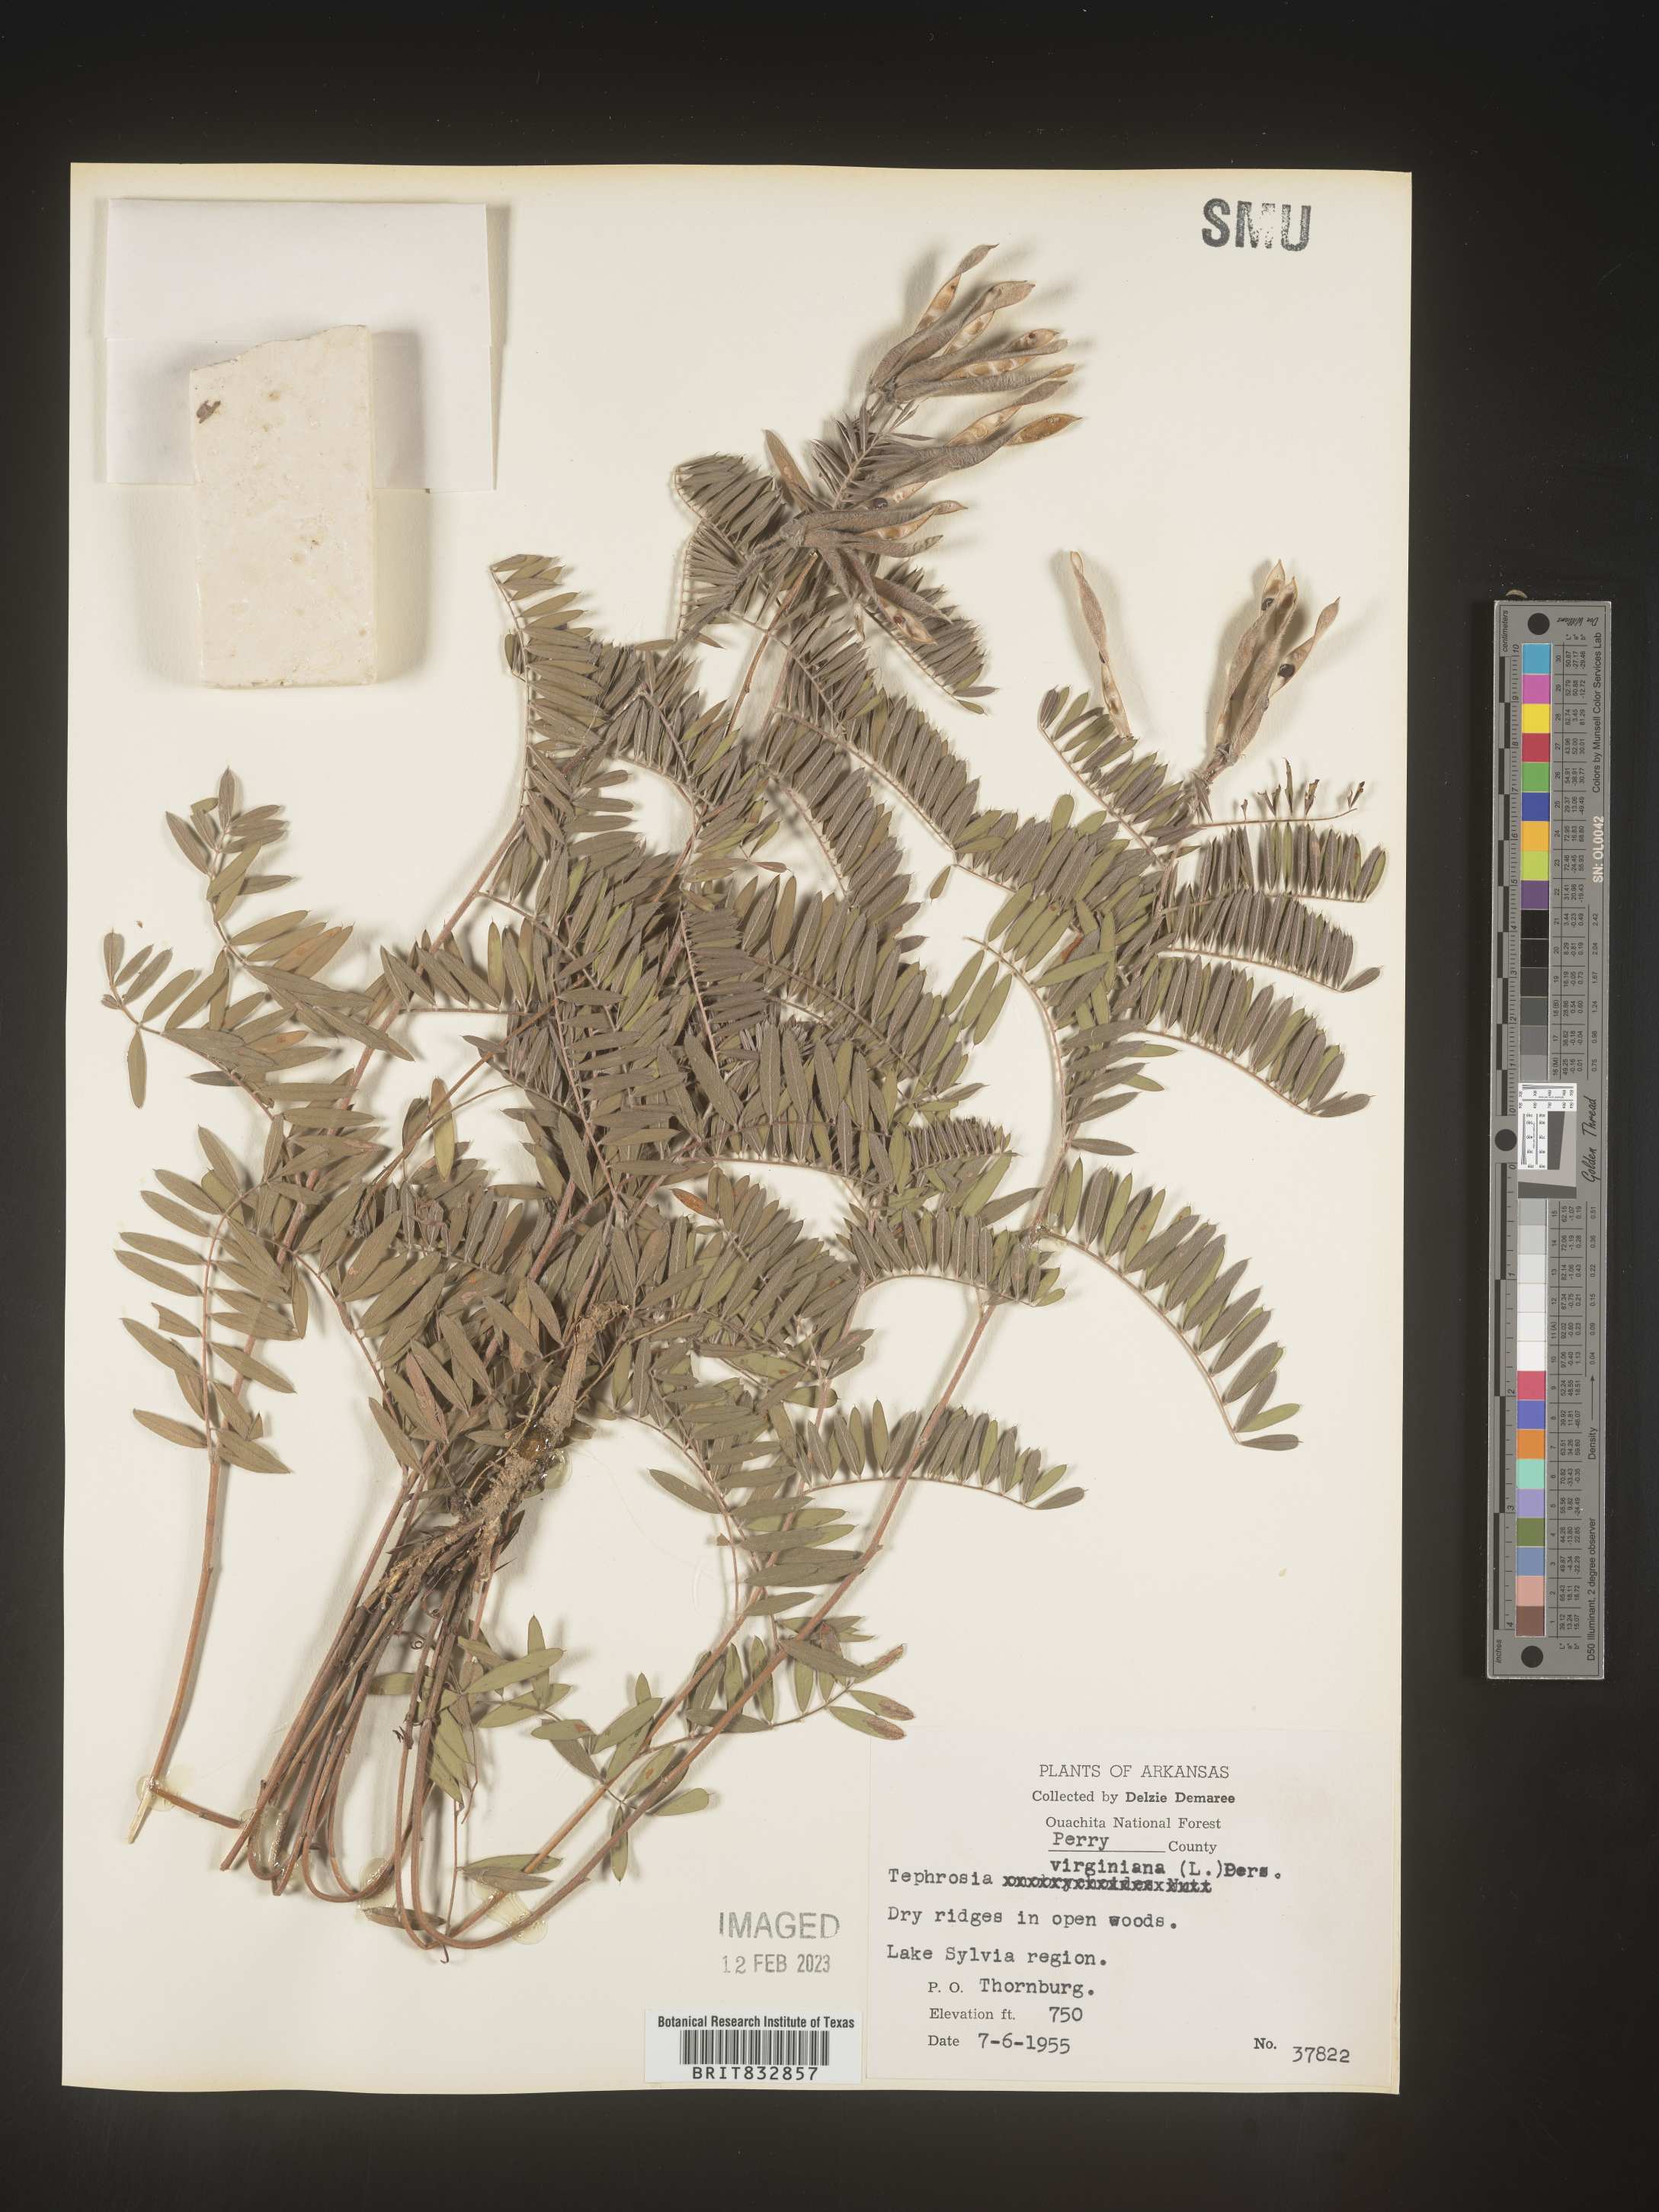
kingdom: Plantae
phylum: Tracheophyta
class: Magnoliopsida
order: Fabales
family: Fabaceae
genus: Tephrosia
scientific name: Tephrosia virginiana
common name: Rabbit-pea
